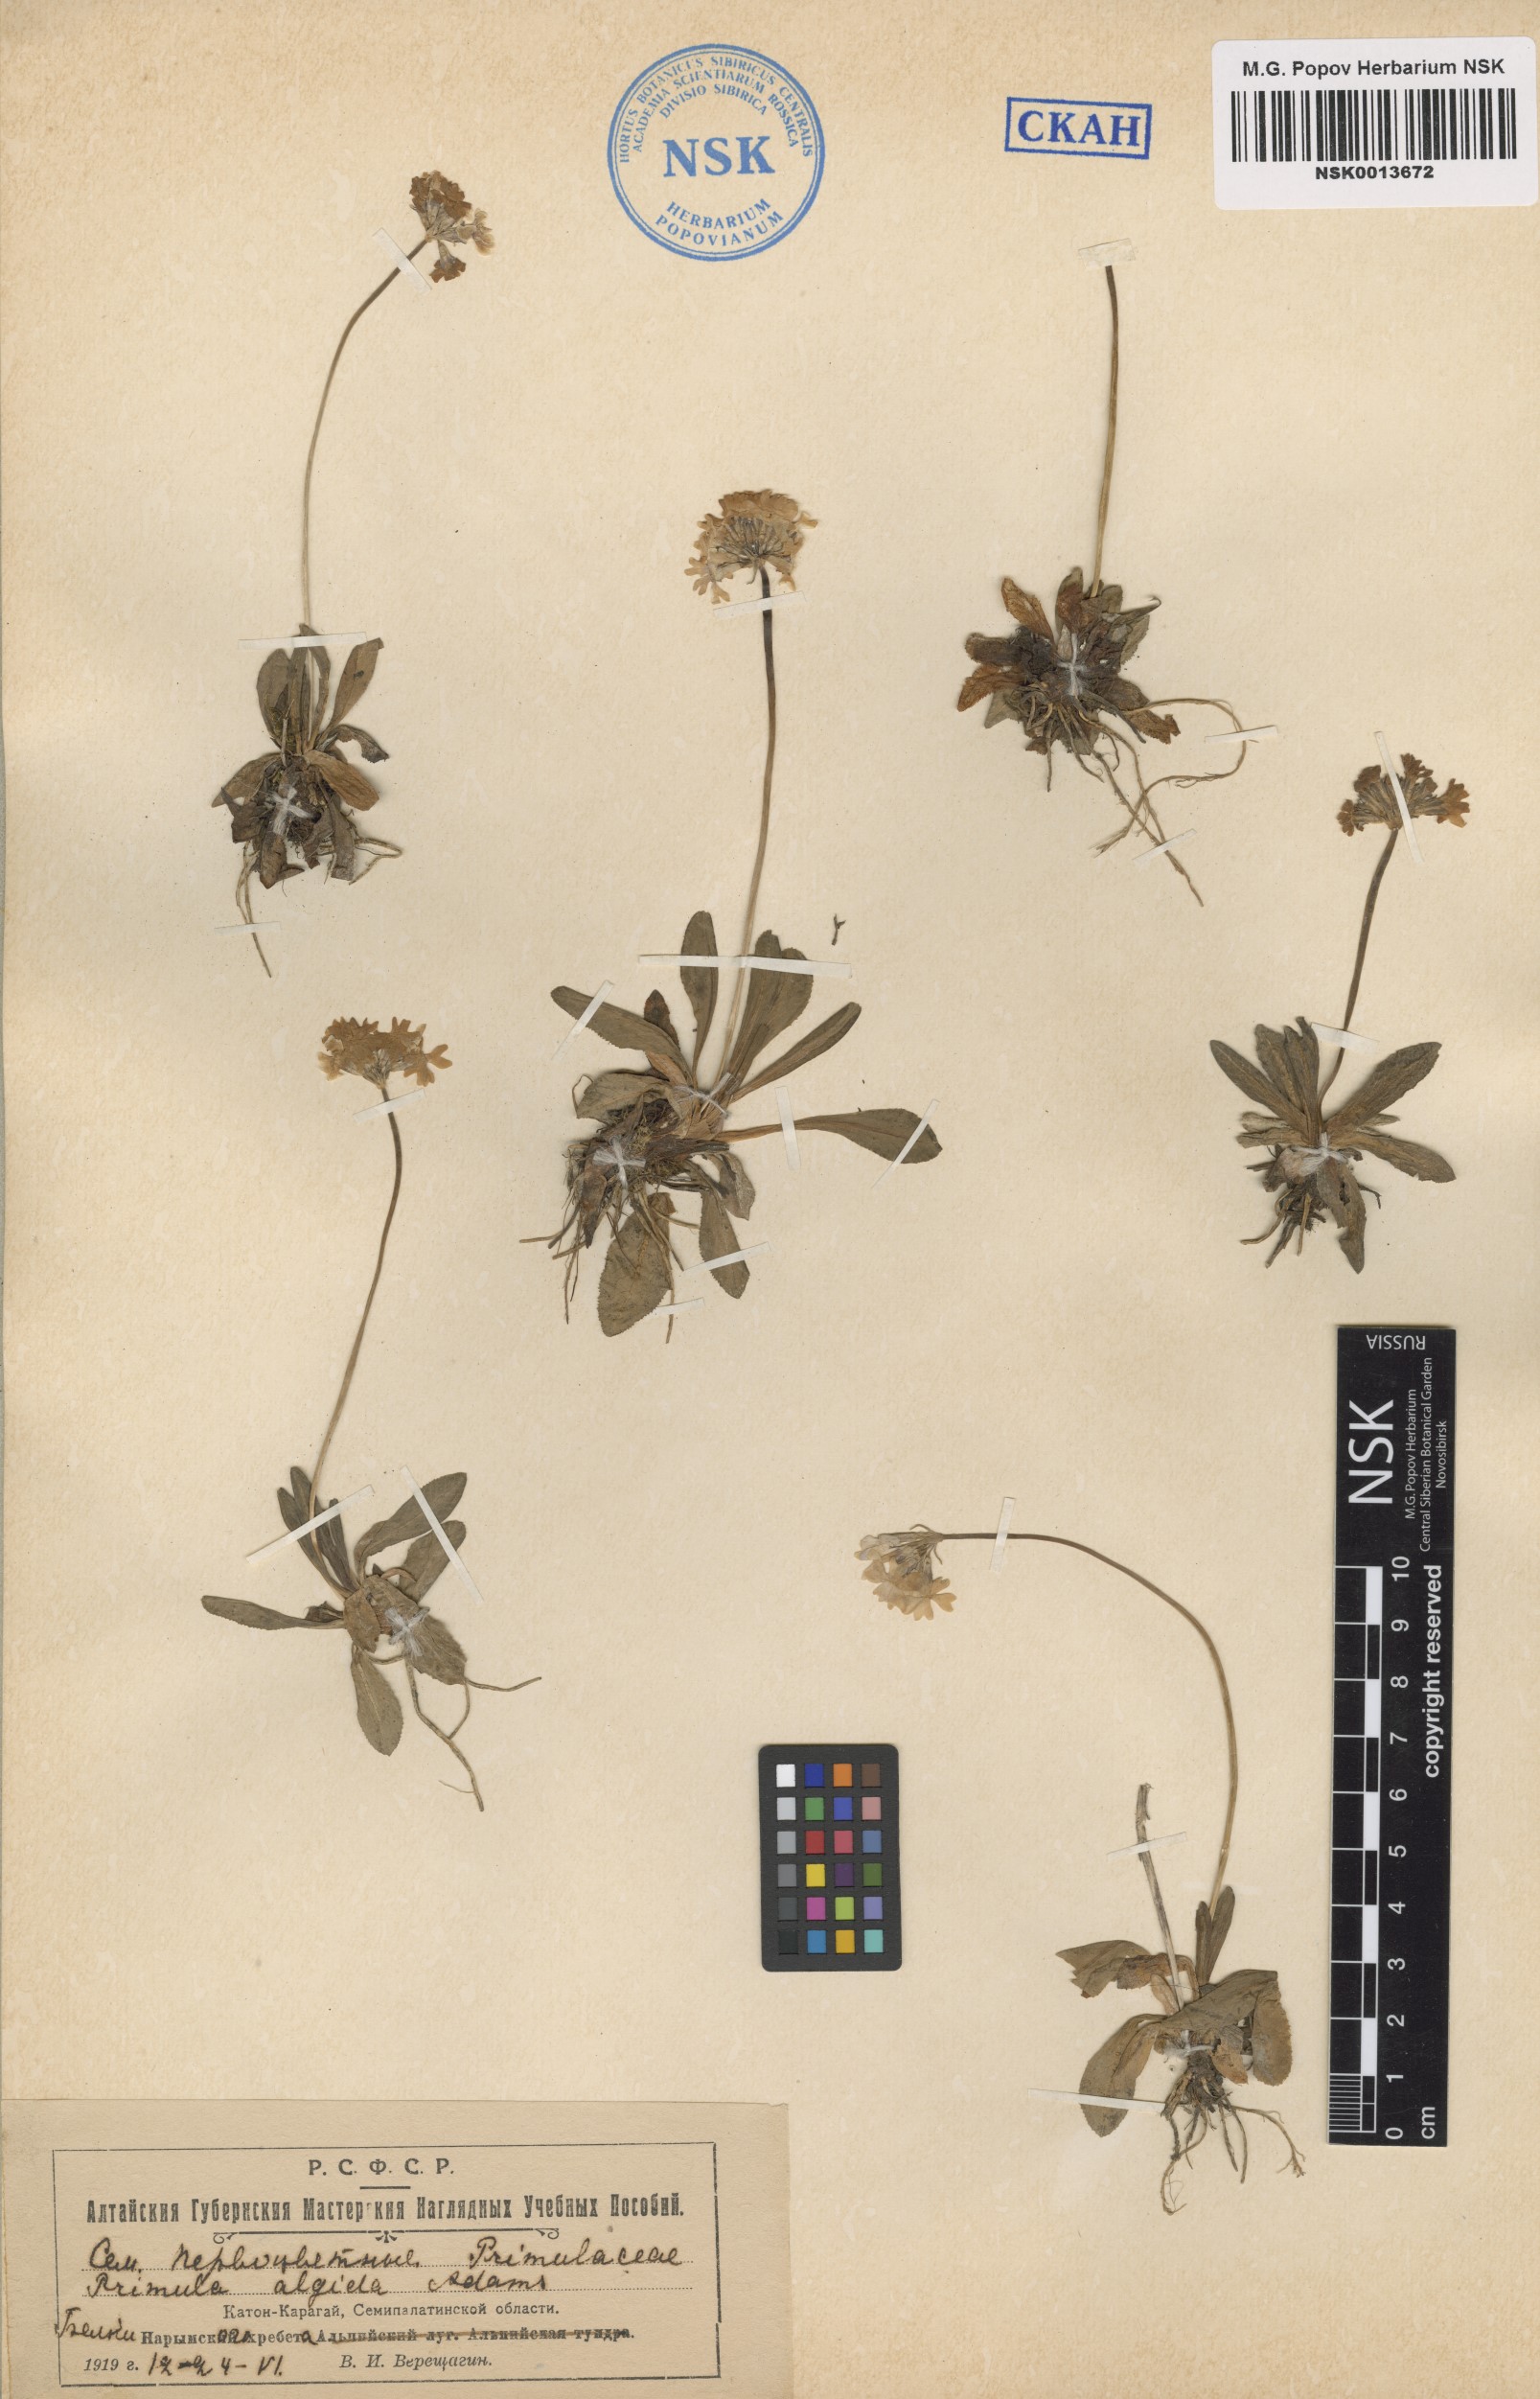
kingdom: Plantae
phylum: Tracheophyta
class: Magnoliopsida
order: Ericales
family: Primulaceae
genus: Primula
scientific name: Primula algida
